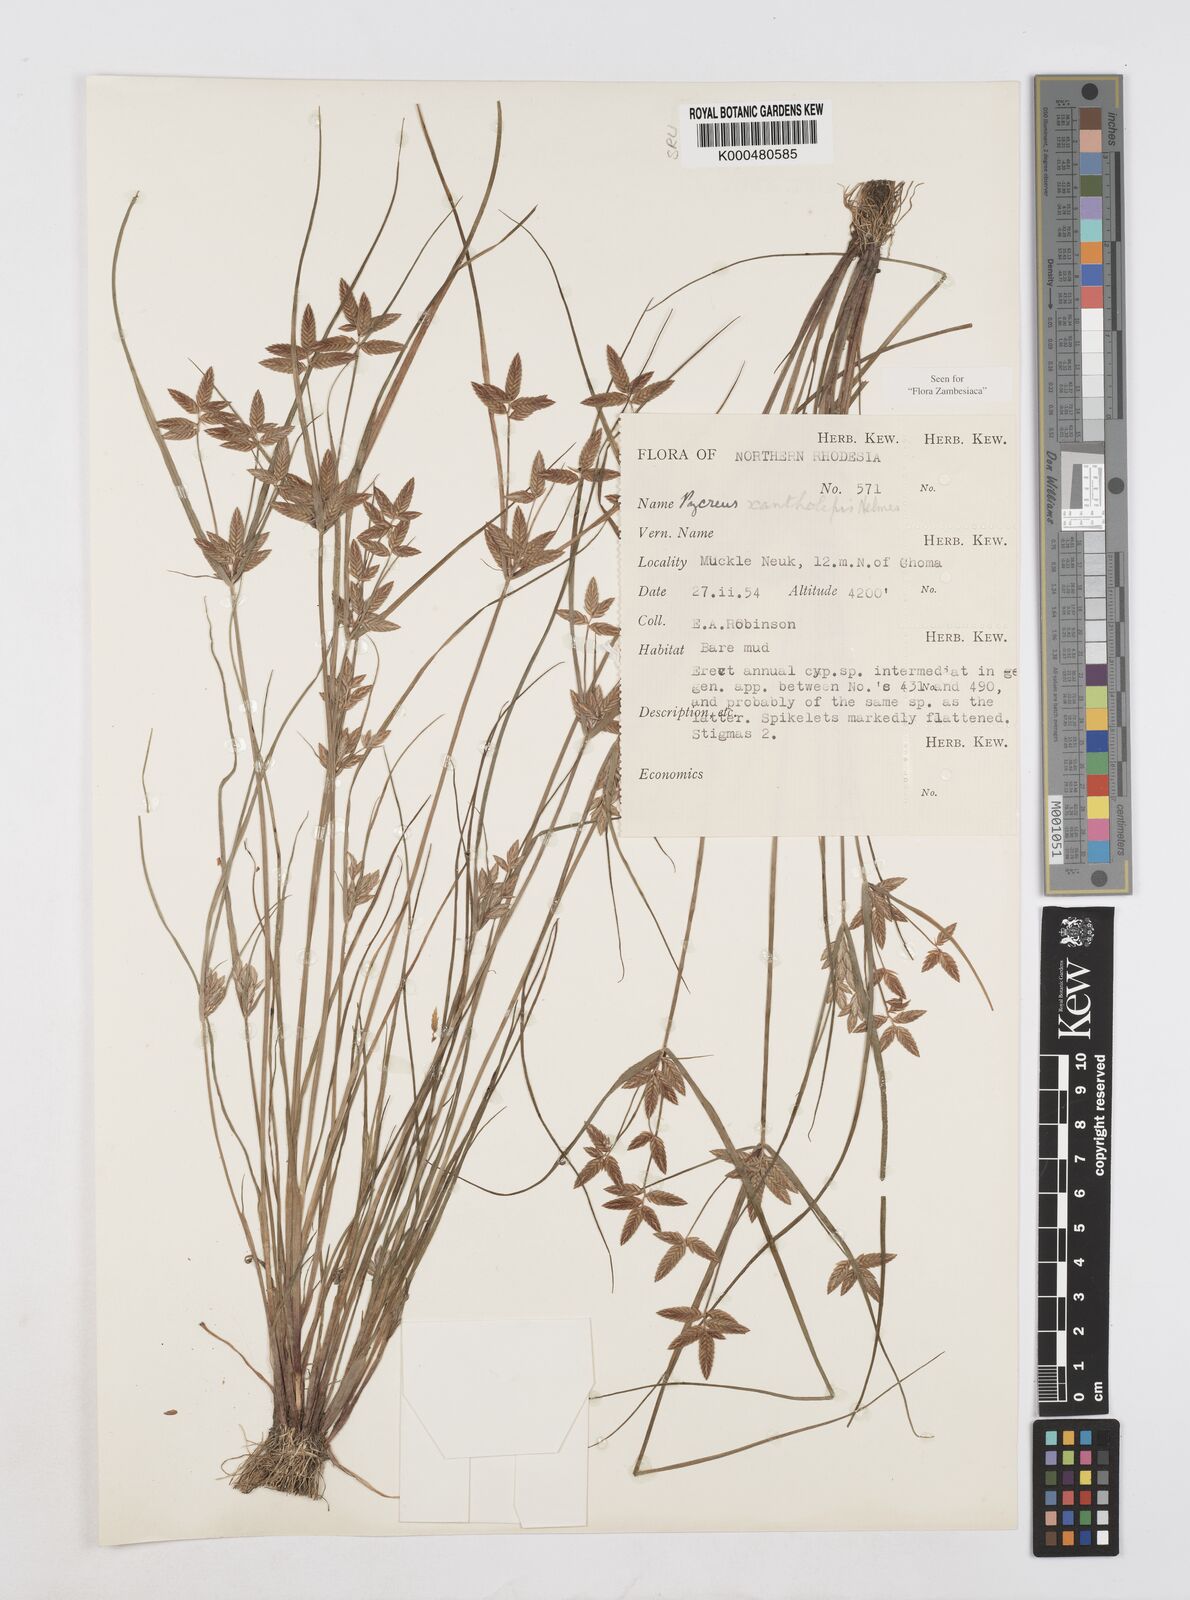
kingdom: Plantae
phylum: Tracheophyta
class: Liliopsida
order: Poales
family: Cyperaceae
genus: Cyperus
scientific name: Cyperus xantholepis
